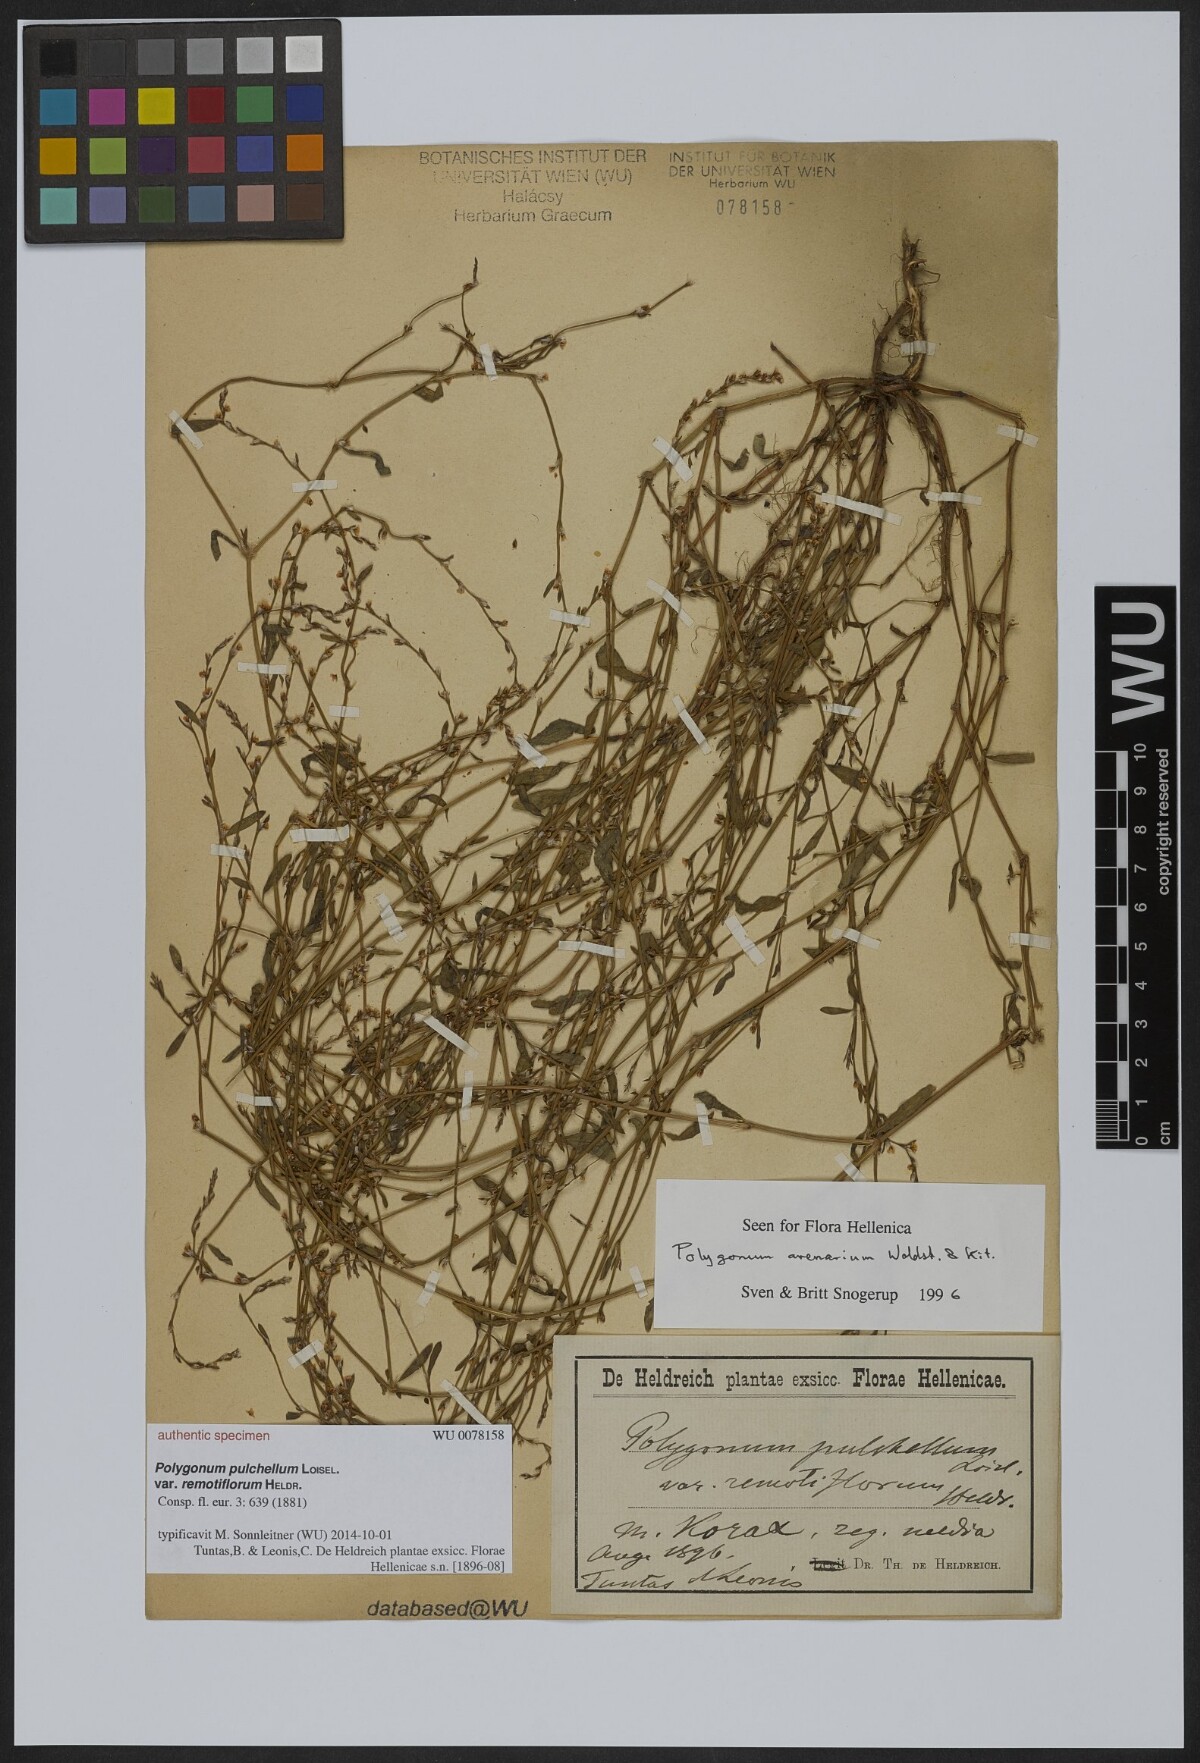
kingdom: Plantae
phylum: Tracheophyta
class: Magnoliopsida
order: Caryophyllales
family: Polygonaceae
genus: Polygonum
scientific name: Polygonum arenarium
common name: Lesser red-knotgrass
